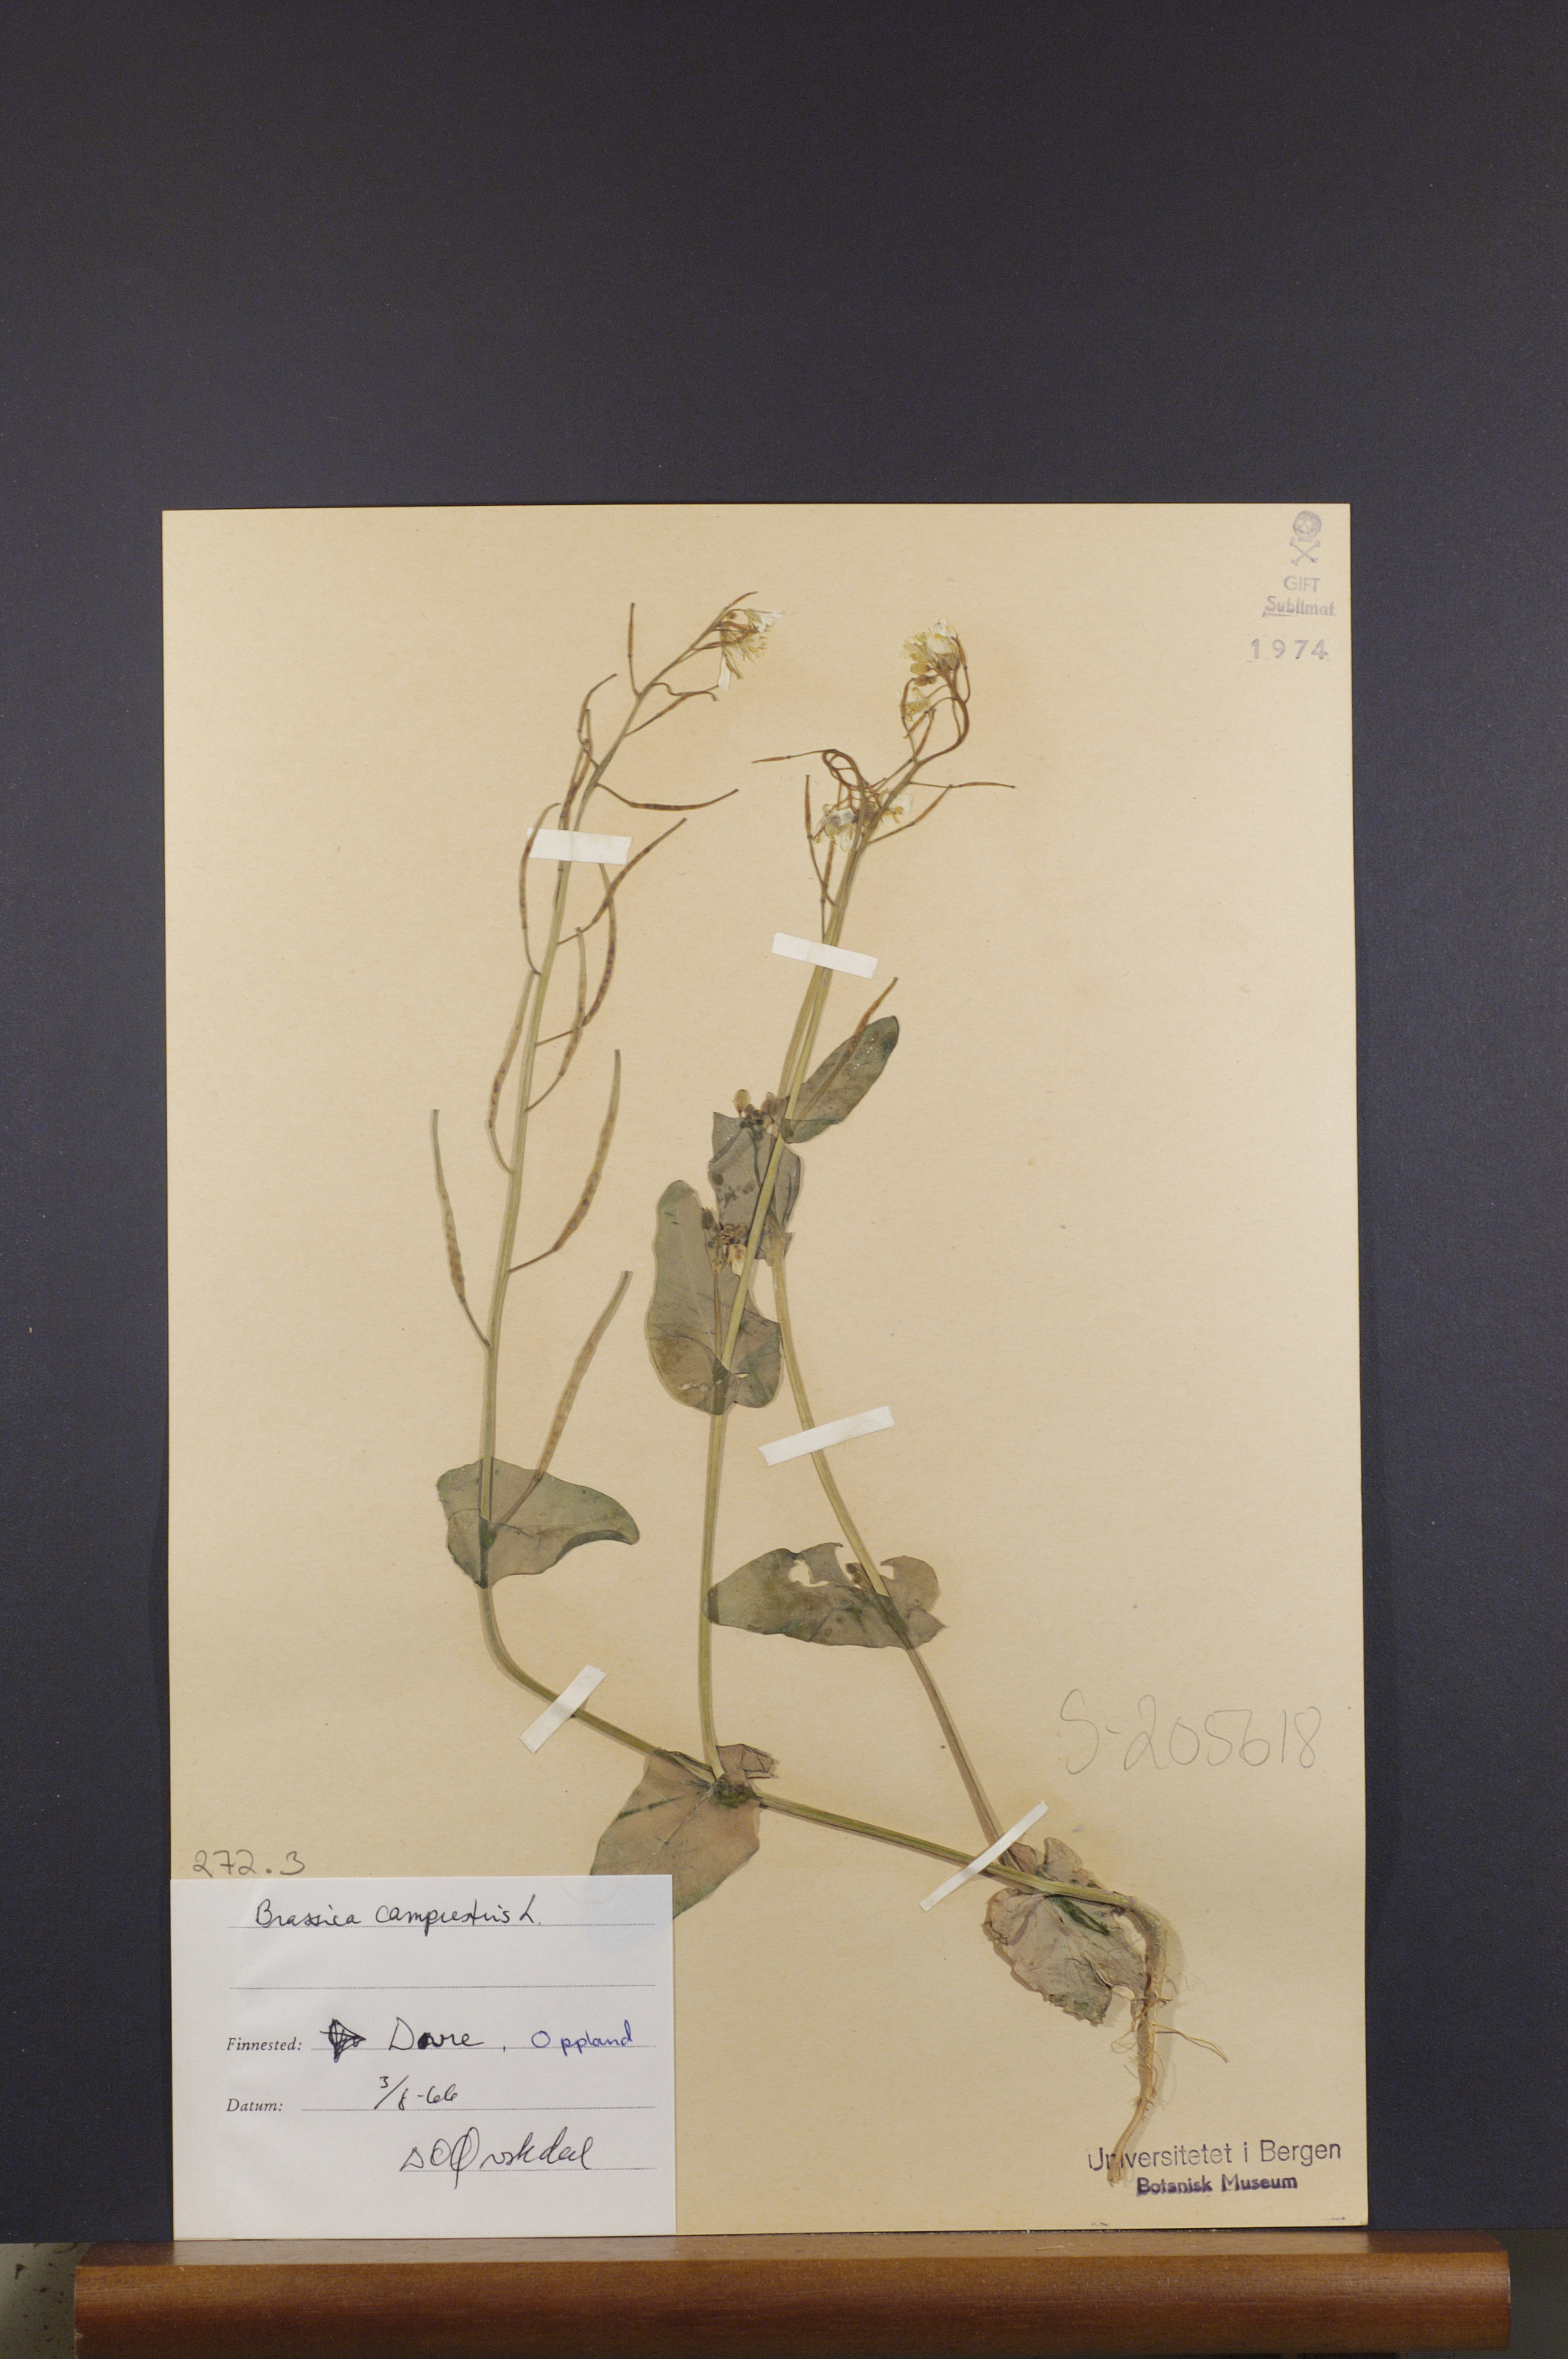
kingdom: Plantae
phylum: Tracheophyta
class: Magnoliopsida
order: Brassicales
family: Brassicaceae
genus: Brassica
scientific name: Brassica rapa
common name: Field mustard
